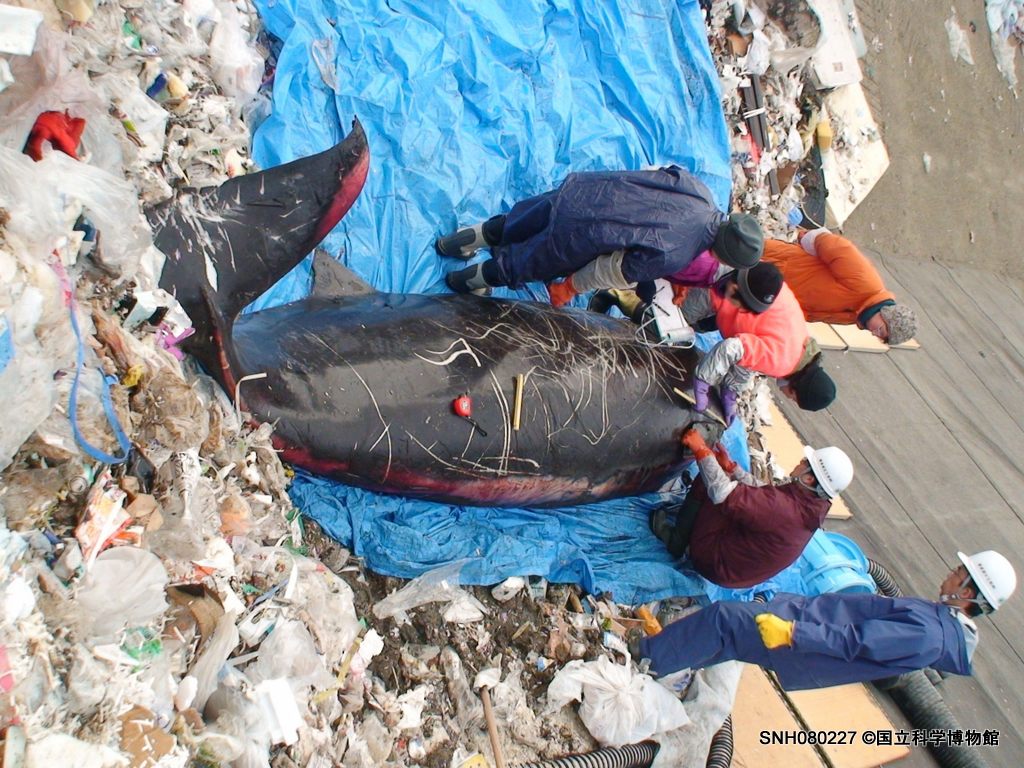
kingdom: Animalia
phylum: Chordata
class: Mammalia
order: Cetacea
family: Hyperoodontidae
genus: Mesoplodon
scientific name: Mesoplodon stejnegeri
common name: Stejneger's beaked whale
